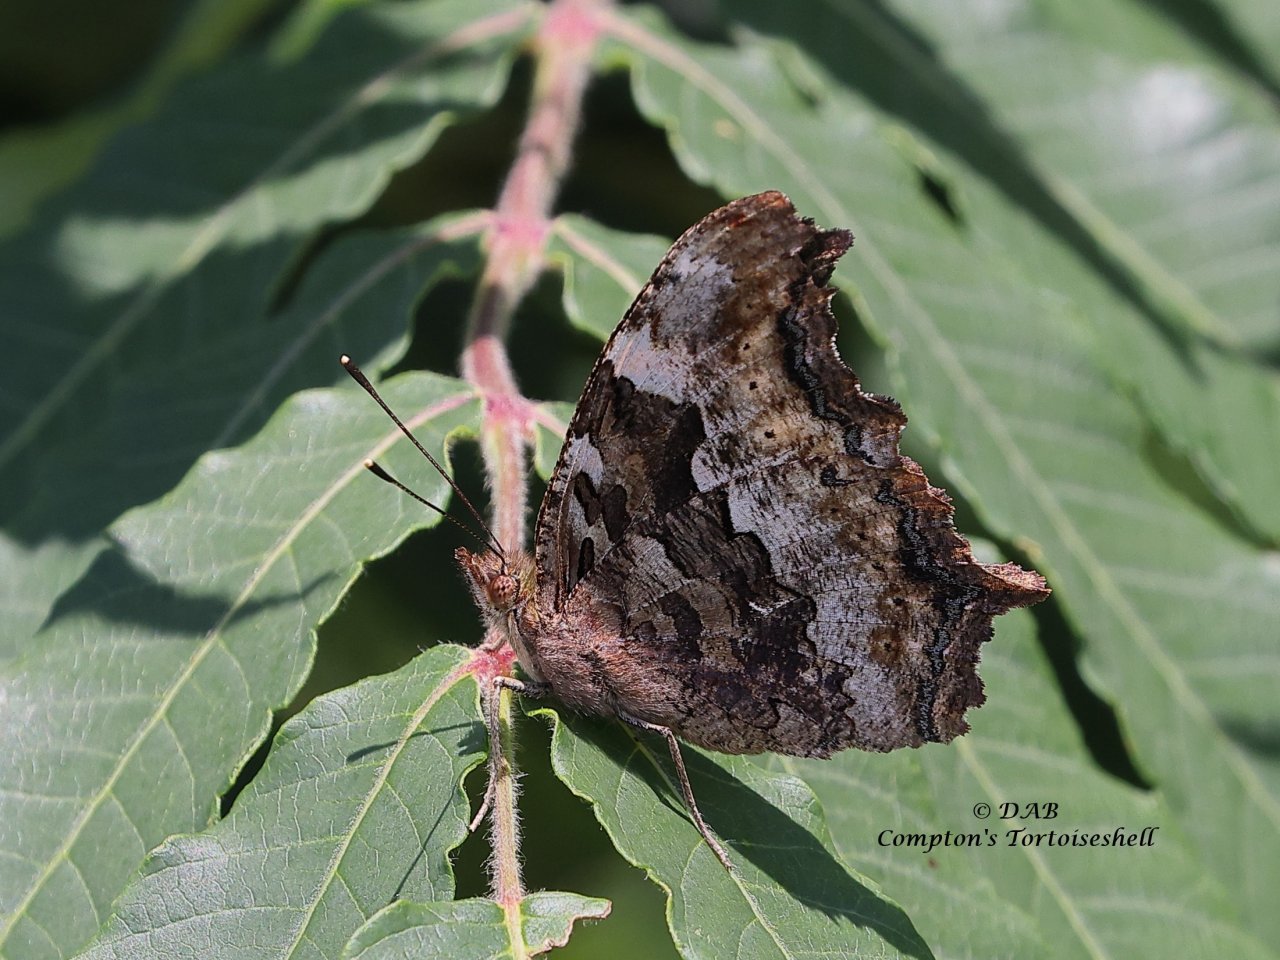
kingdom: Animalia
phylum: Arthropoda
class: Insecta
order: Lepidoptera
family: Nymphalidae
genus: Polygonia
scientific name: Polygonia vaualbum
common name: Compton Tortoiseshell
